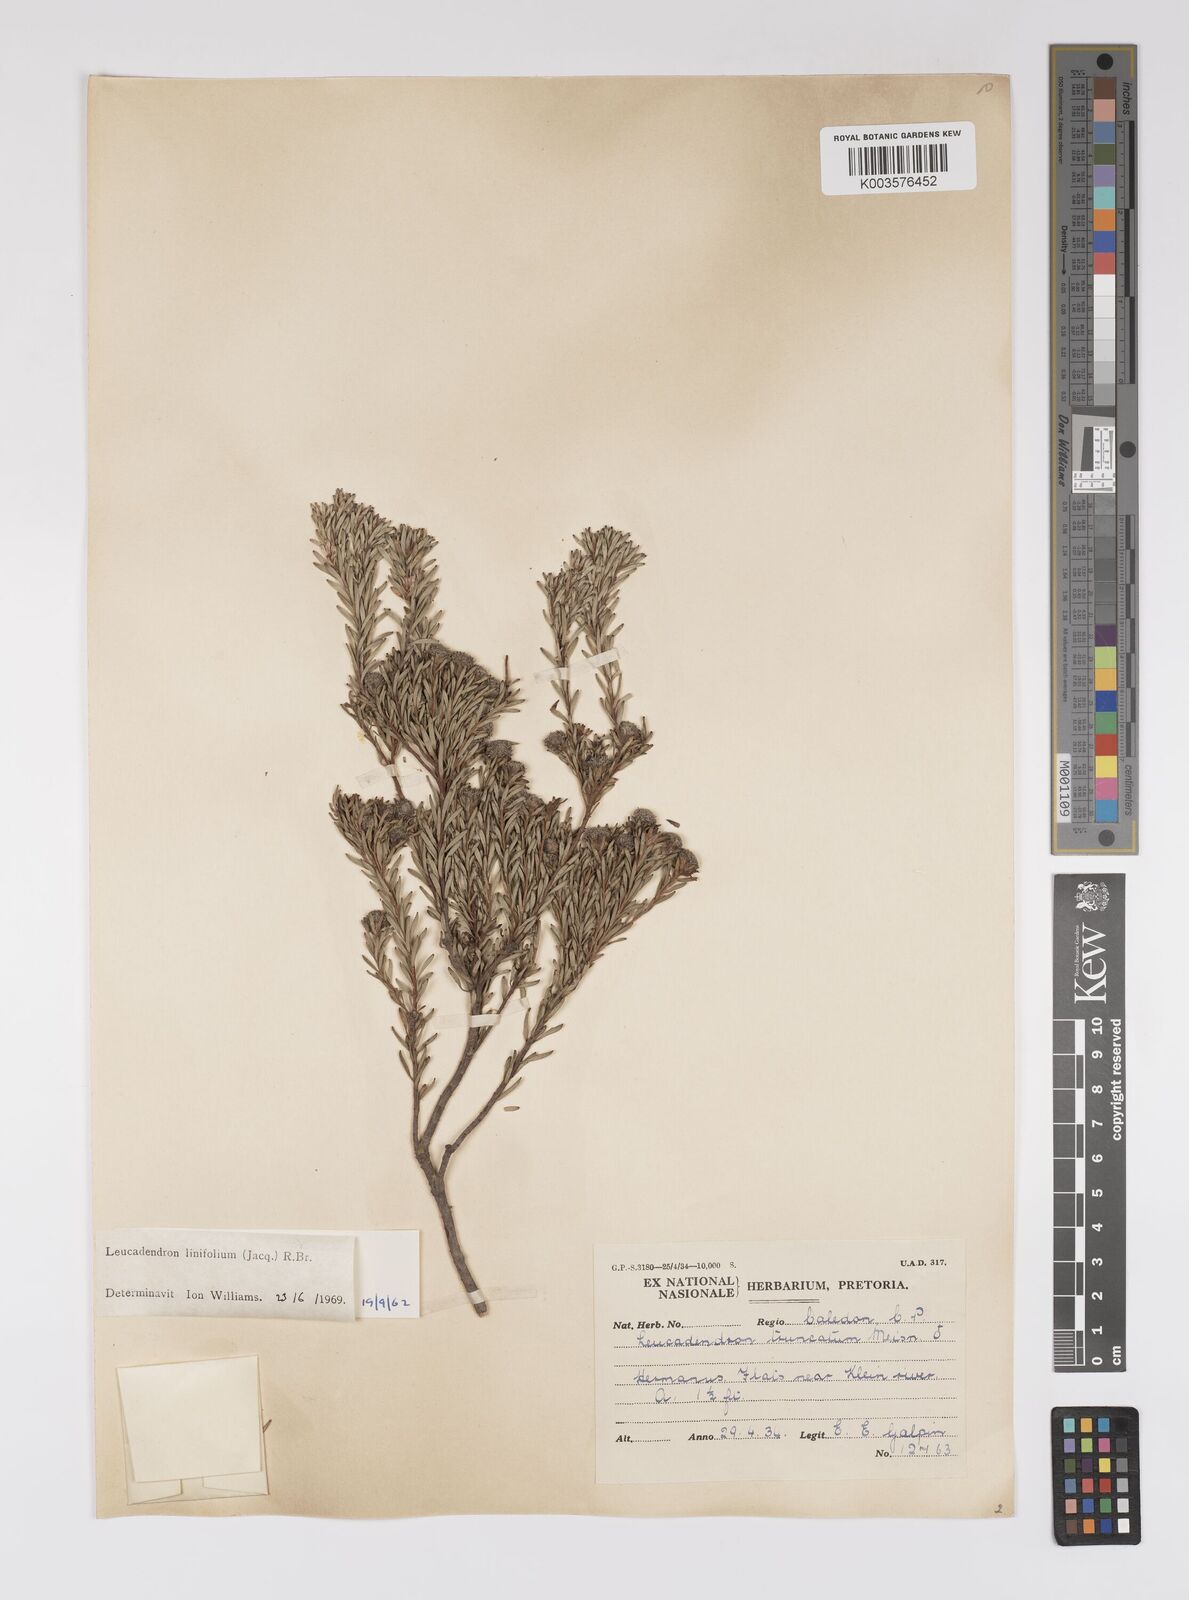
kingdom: Plantae
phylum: Tracheophyta
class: Magnoliopsida
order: Proteales
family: Proteaceae
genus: Leucadendron
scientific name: Leucadendron linifolium
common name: Line-leaf conebush
